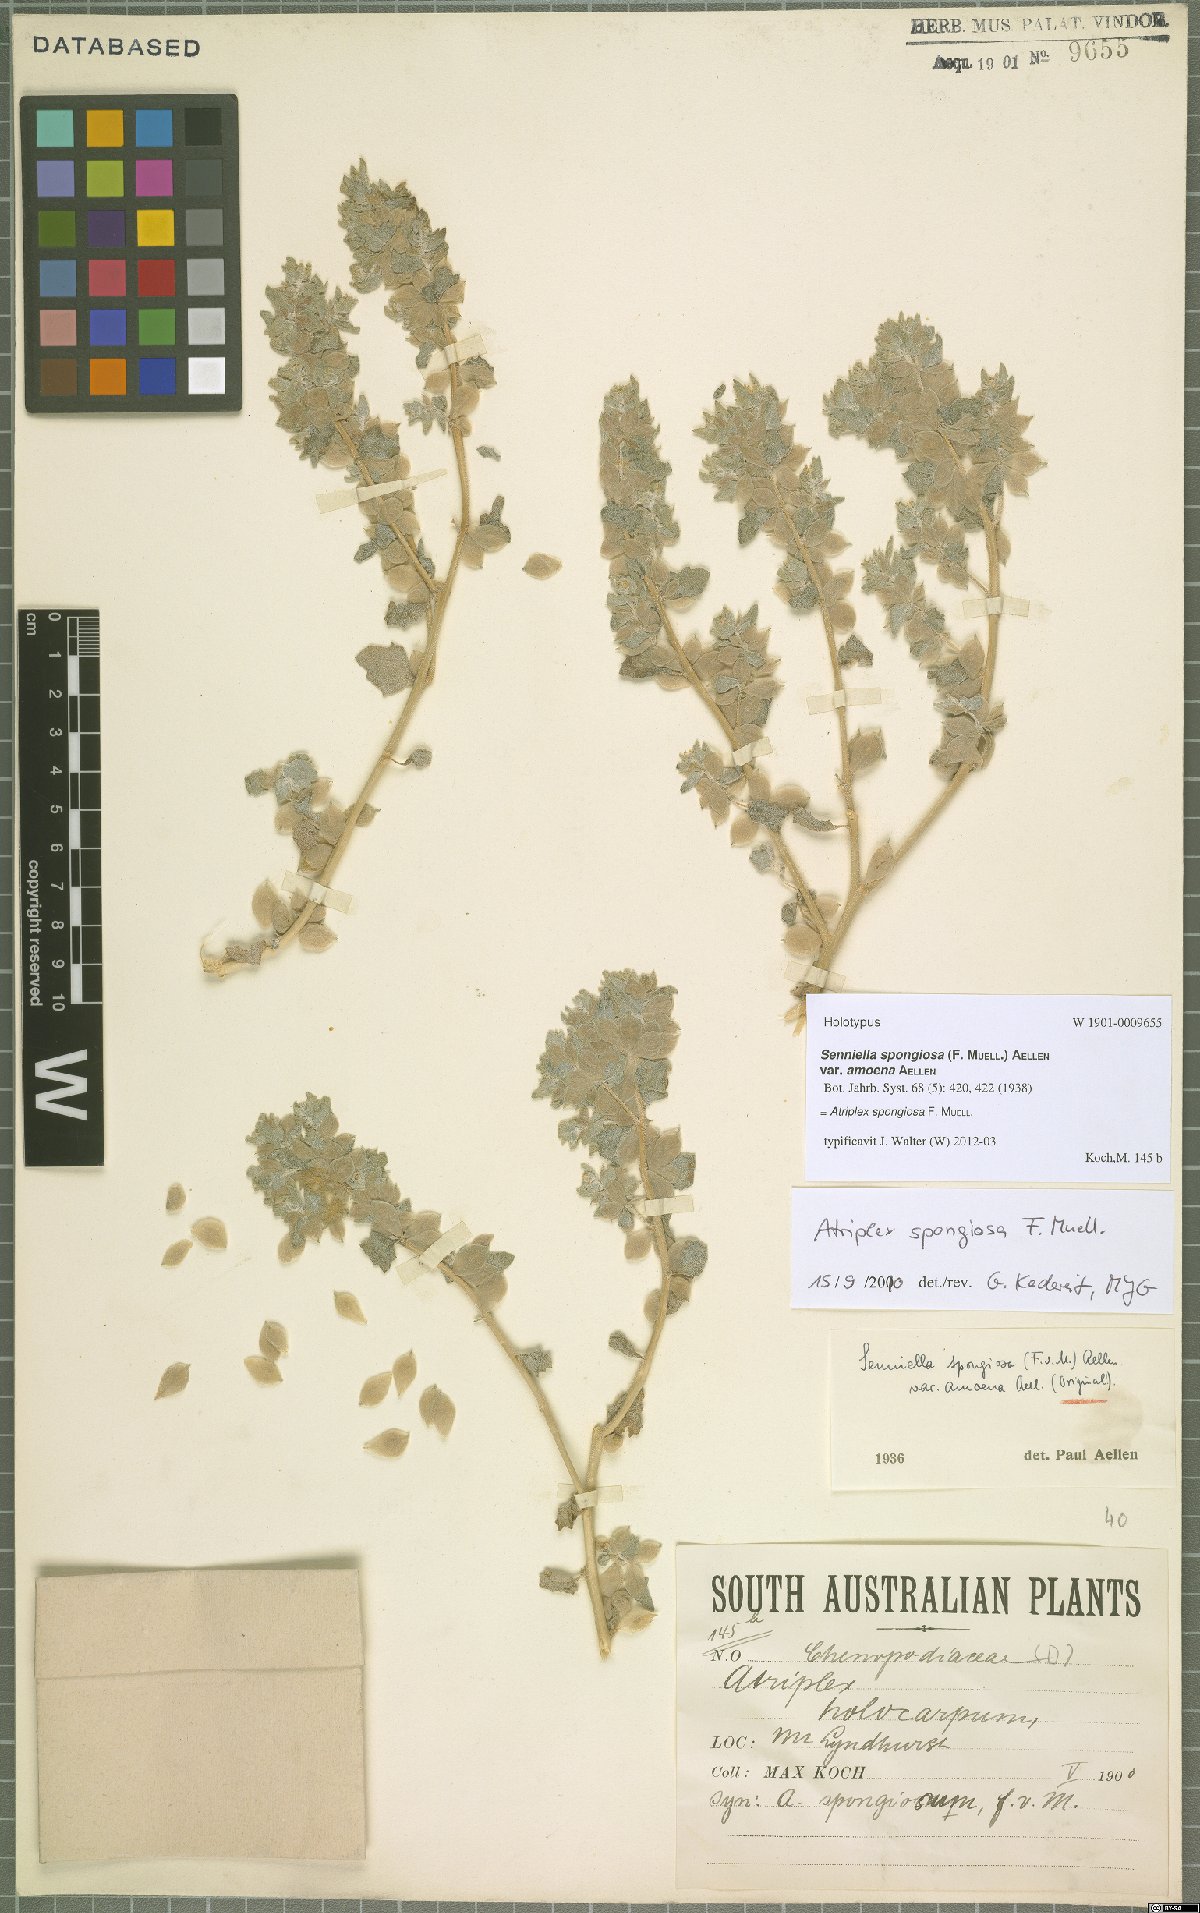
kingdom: Plantae
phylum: Tracheophyta
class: Magnoliopsida
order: Caryophyllales
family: Amaranthaceae
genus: Atriplex
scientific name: Atriplex spongiosa
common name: Pop saltbush
